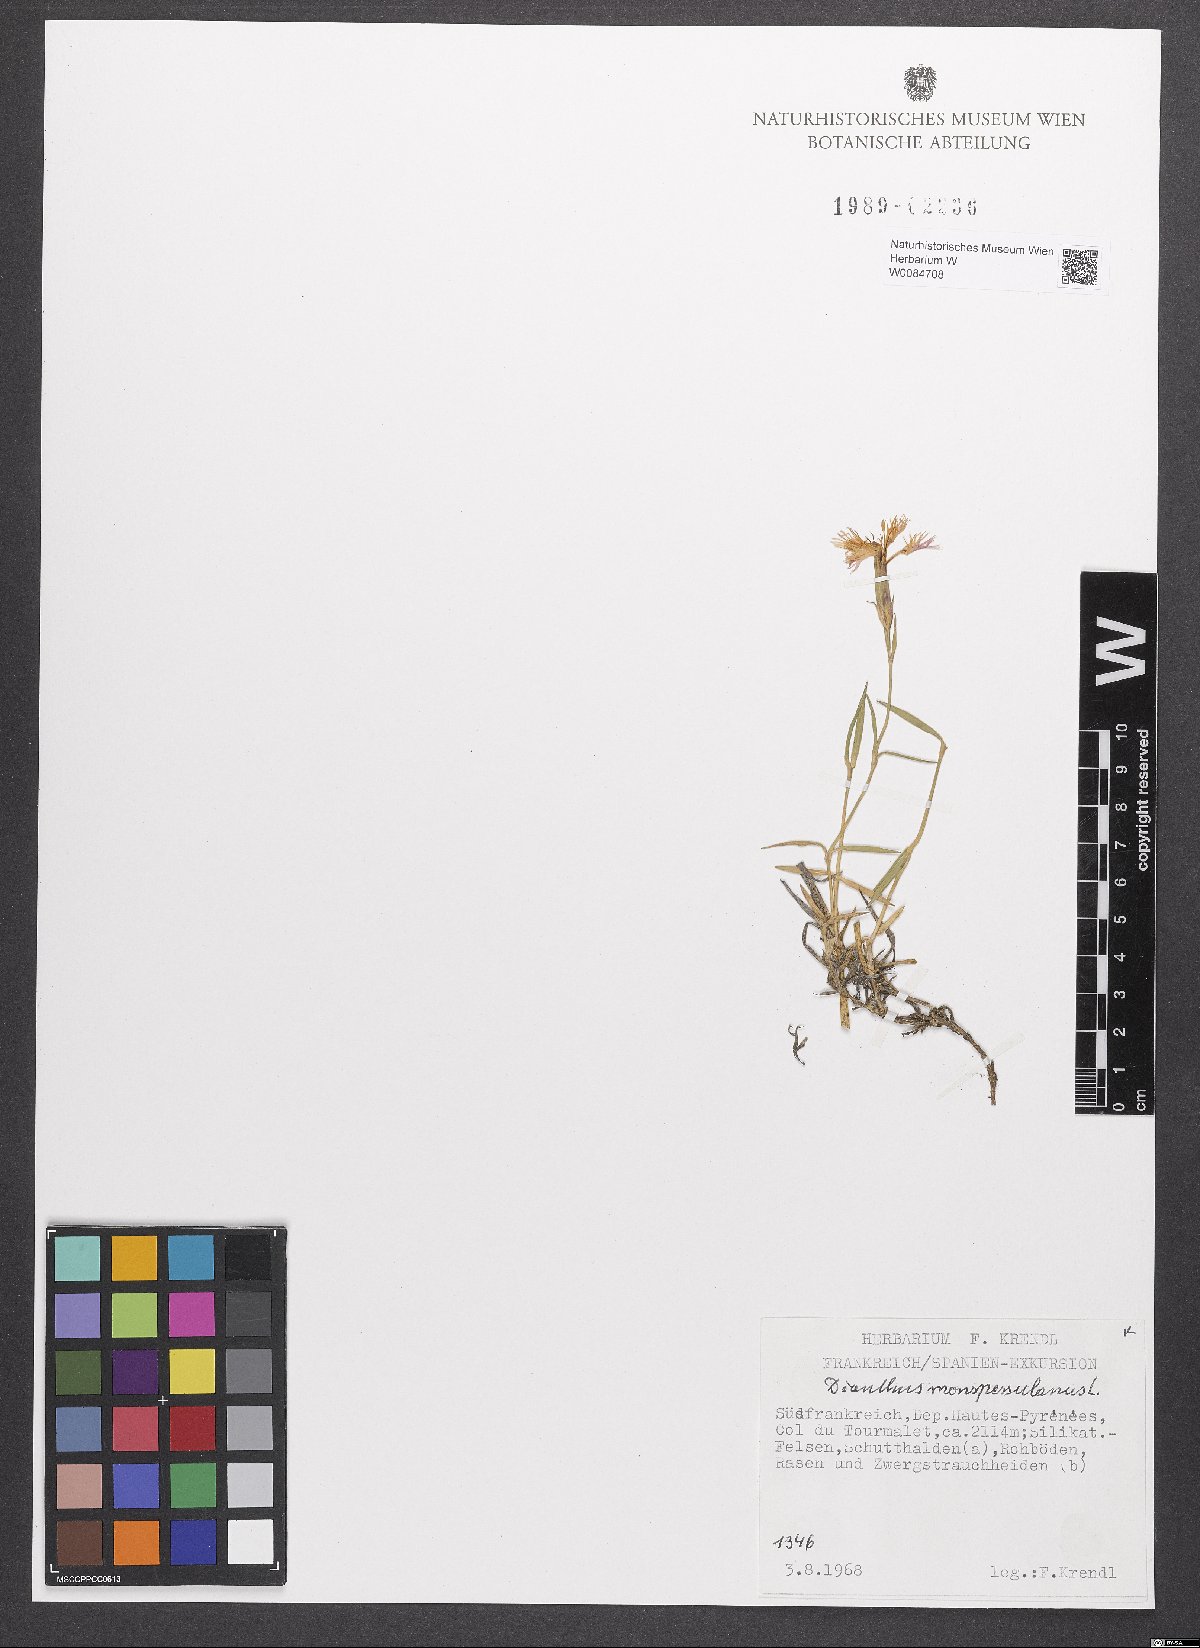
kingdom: Plantae
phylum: Tracheophyta
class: Magnoliopsida
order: Caryophyllales
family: Caryophyllaceae
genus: Dianthus
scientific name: Dianthus hyssopifolius
